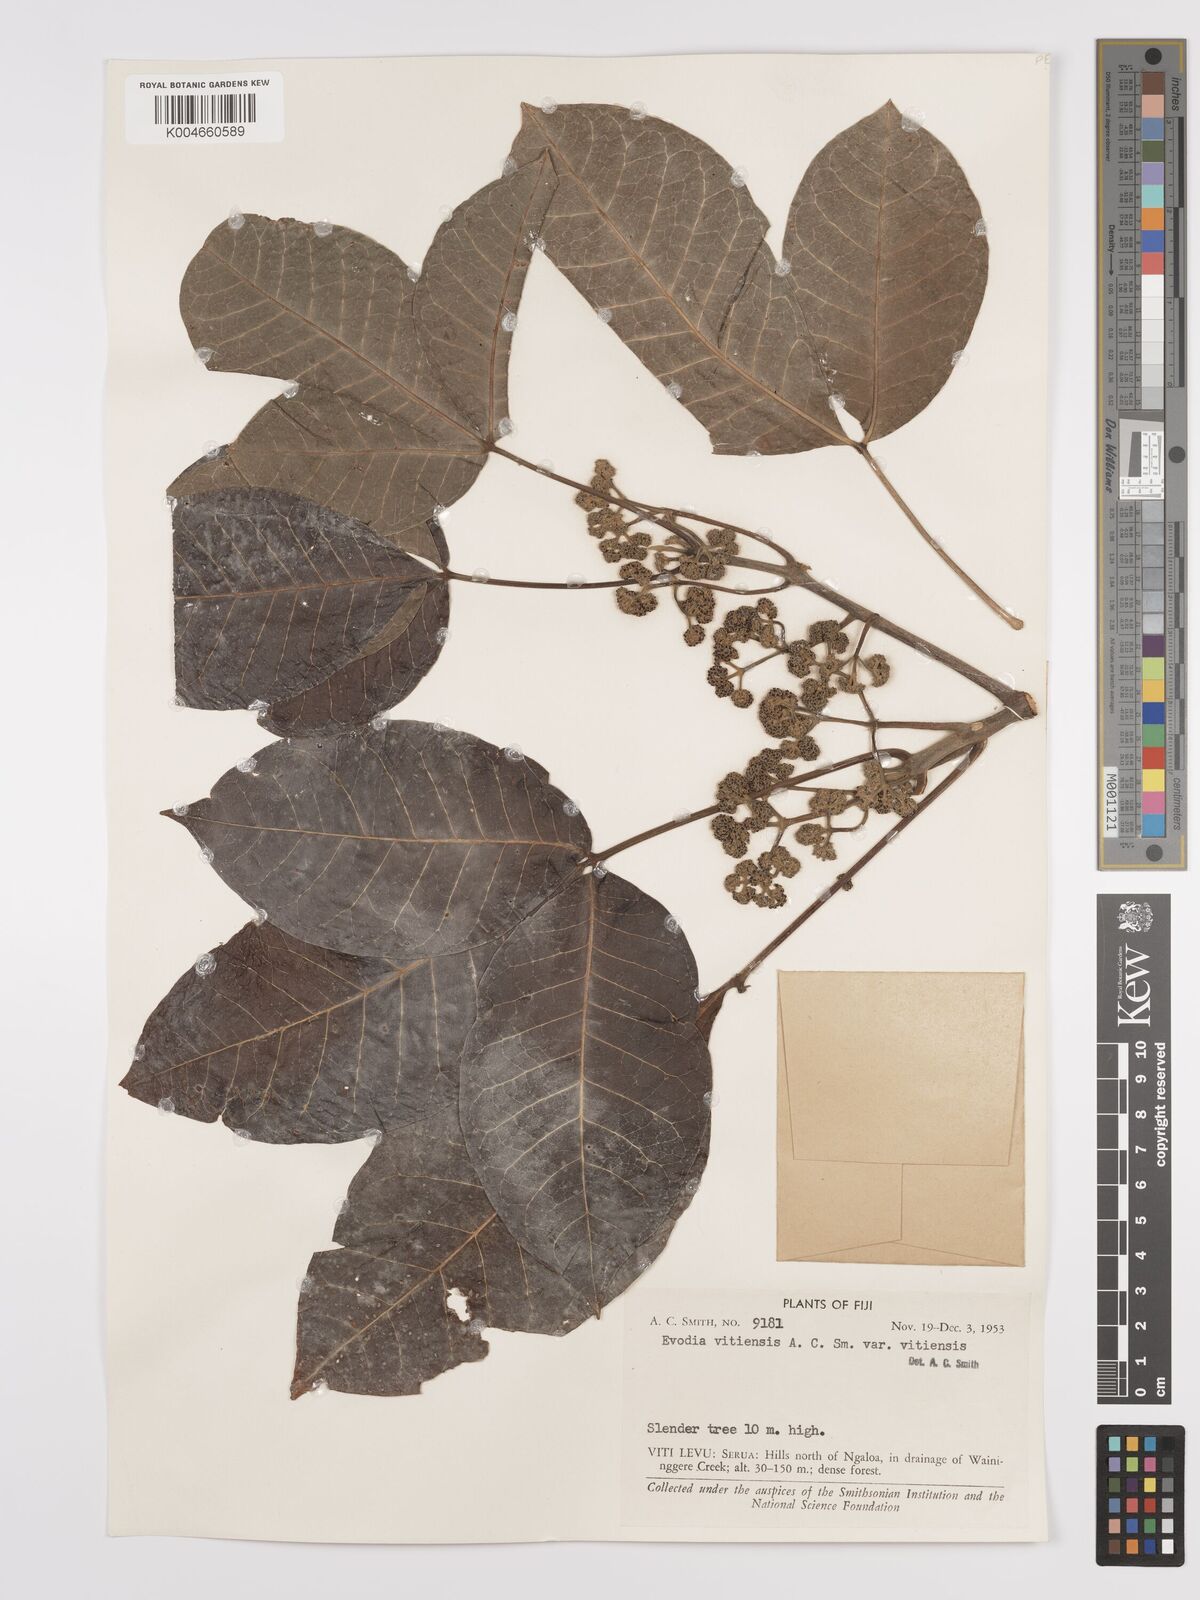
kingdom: Plantae
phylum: Tracheophyta
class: Magnoliopsida
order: Sapindales
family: Rutaceae
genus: Melicope
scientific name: Melicope cucullata
